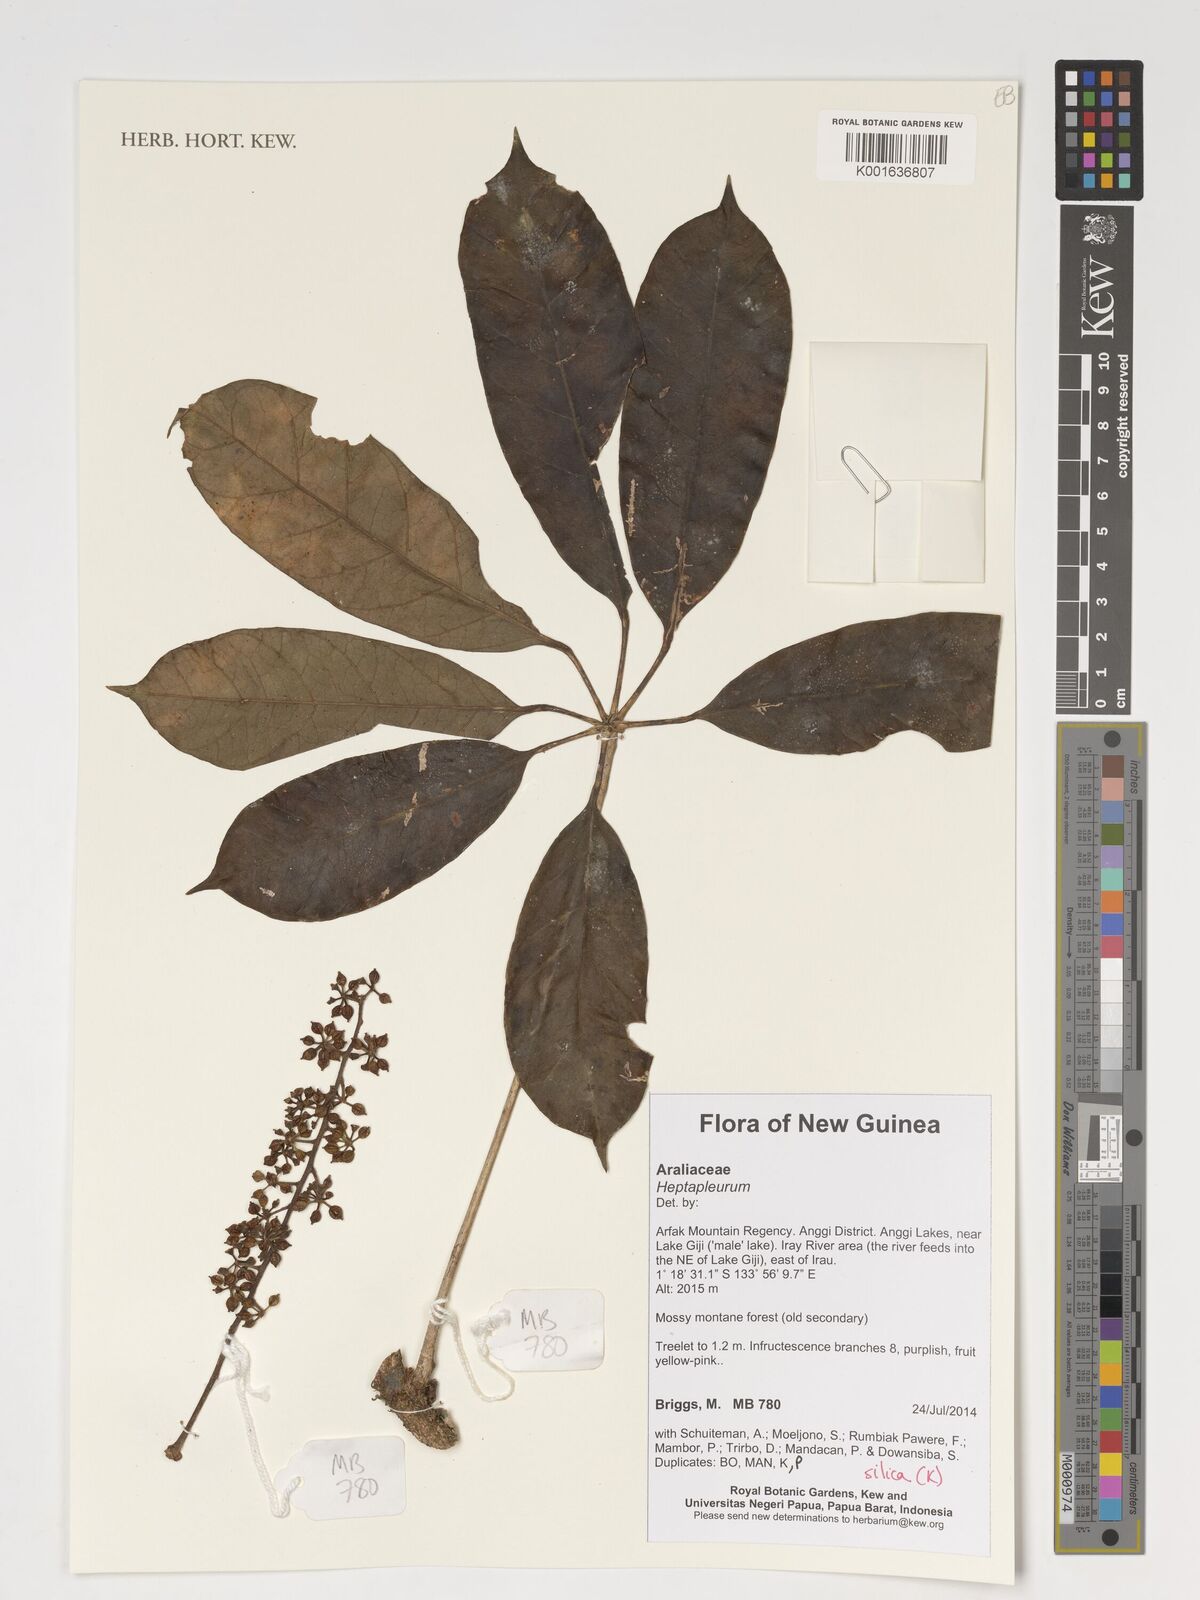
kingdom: Plantae
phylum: Tracheophyta
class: Magnoliopsida
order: Apiales
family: Araliaceae
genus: Heptapleurum
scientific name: Heptapleurum
